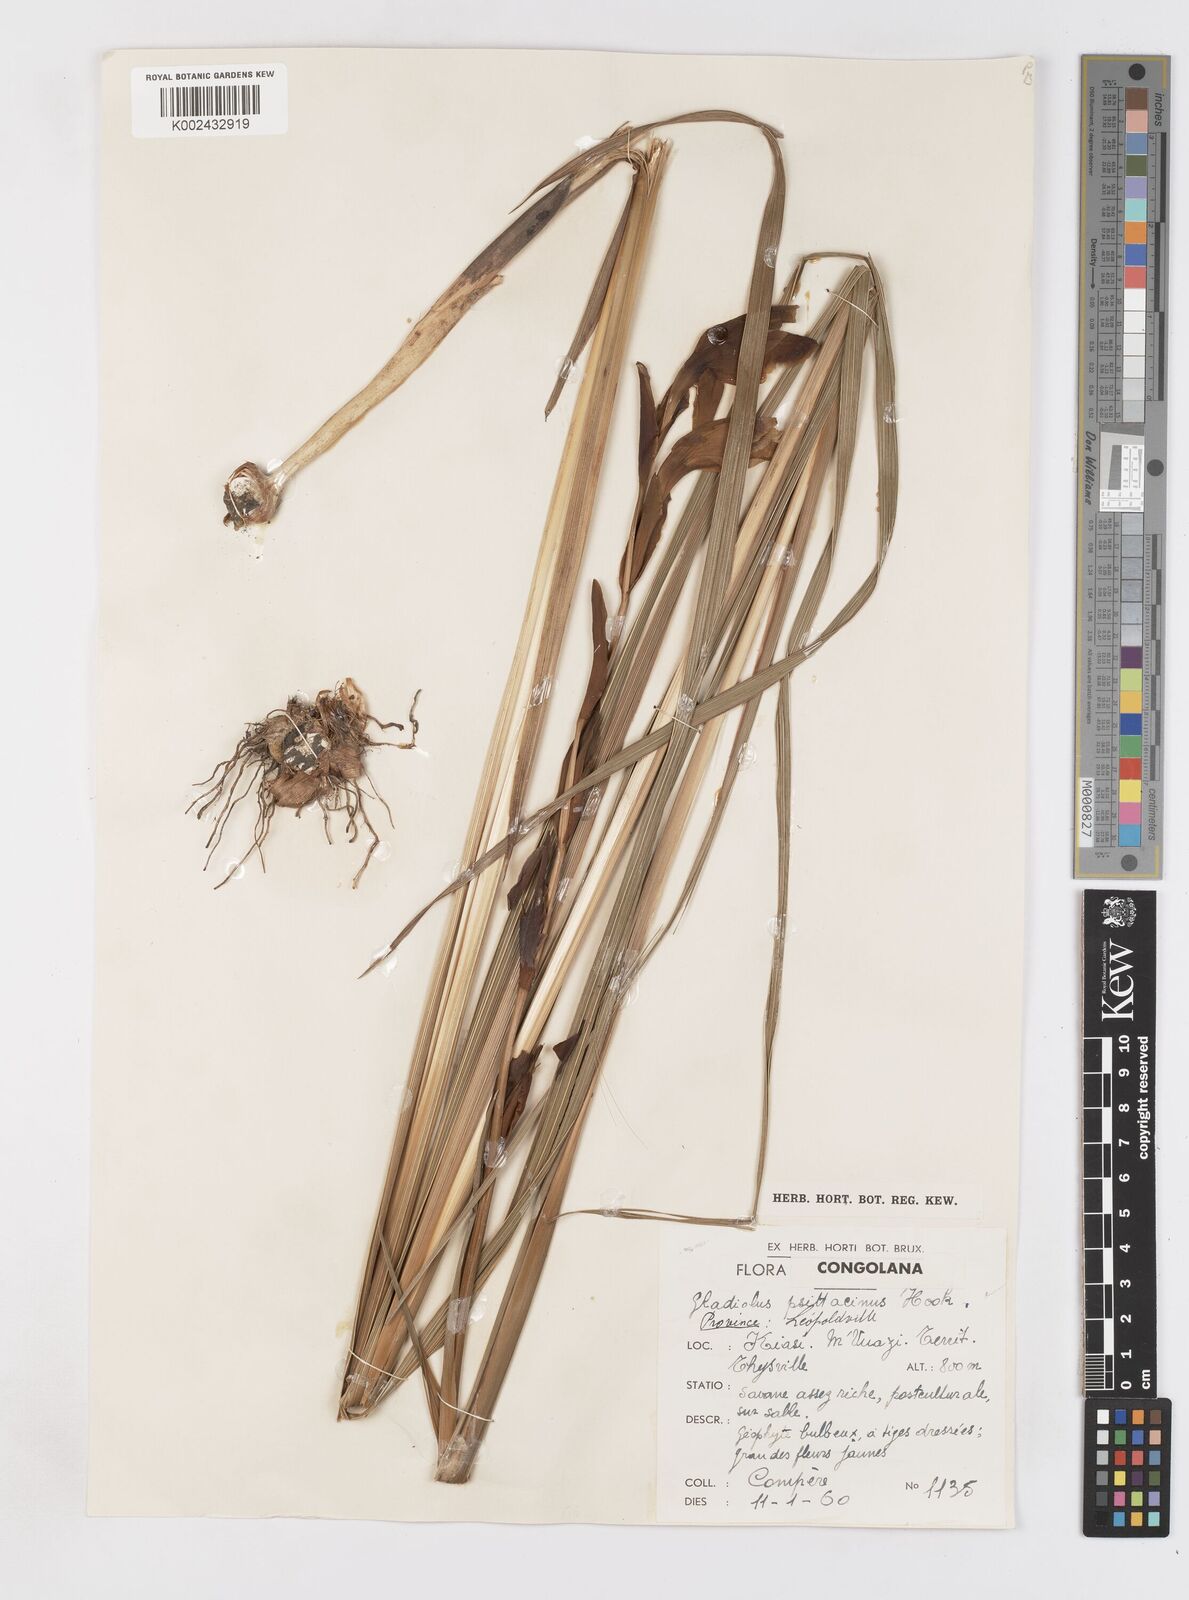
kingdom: Plantae
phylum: Tracheophyta
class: Liliopsida
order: Asparagales
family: Iridaceae
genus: Gladiolus
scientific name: Gladiolus dalenii
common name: Cornflag
